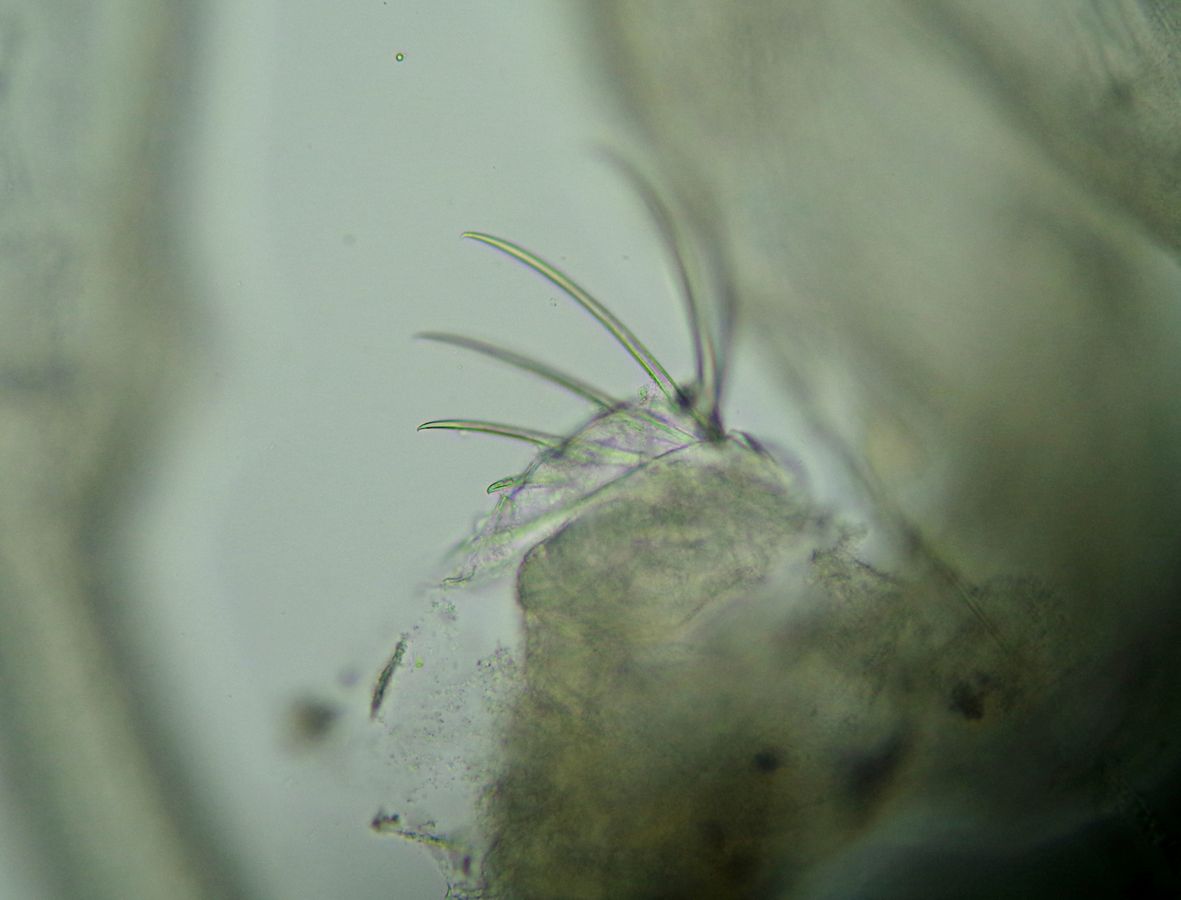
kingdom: Animalia
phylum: Chaetognatha
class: Sagittoidea
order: Aphragmophora
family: Sagittidae
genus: Parasagitta
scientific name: Parasagitta elegans
